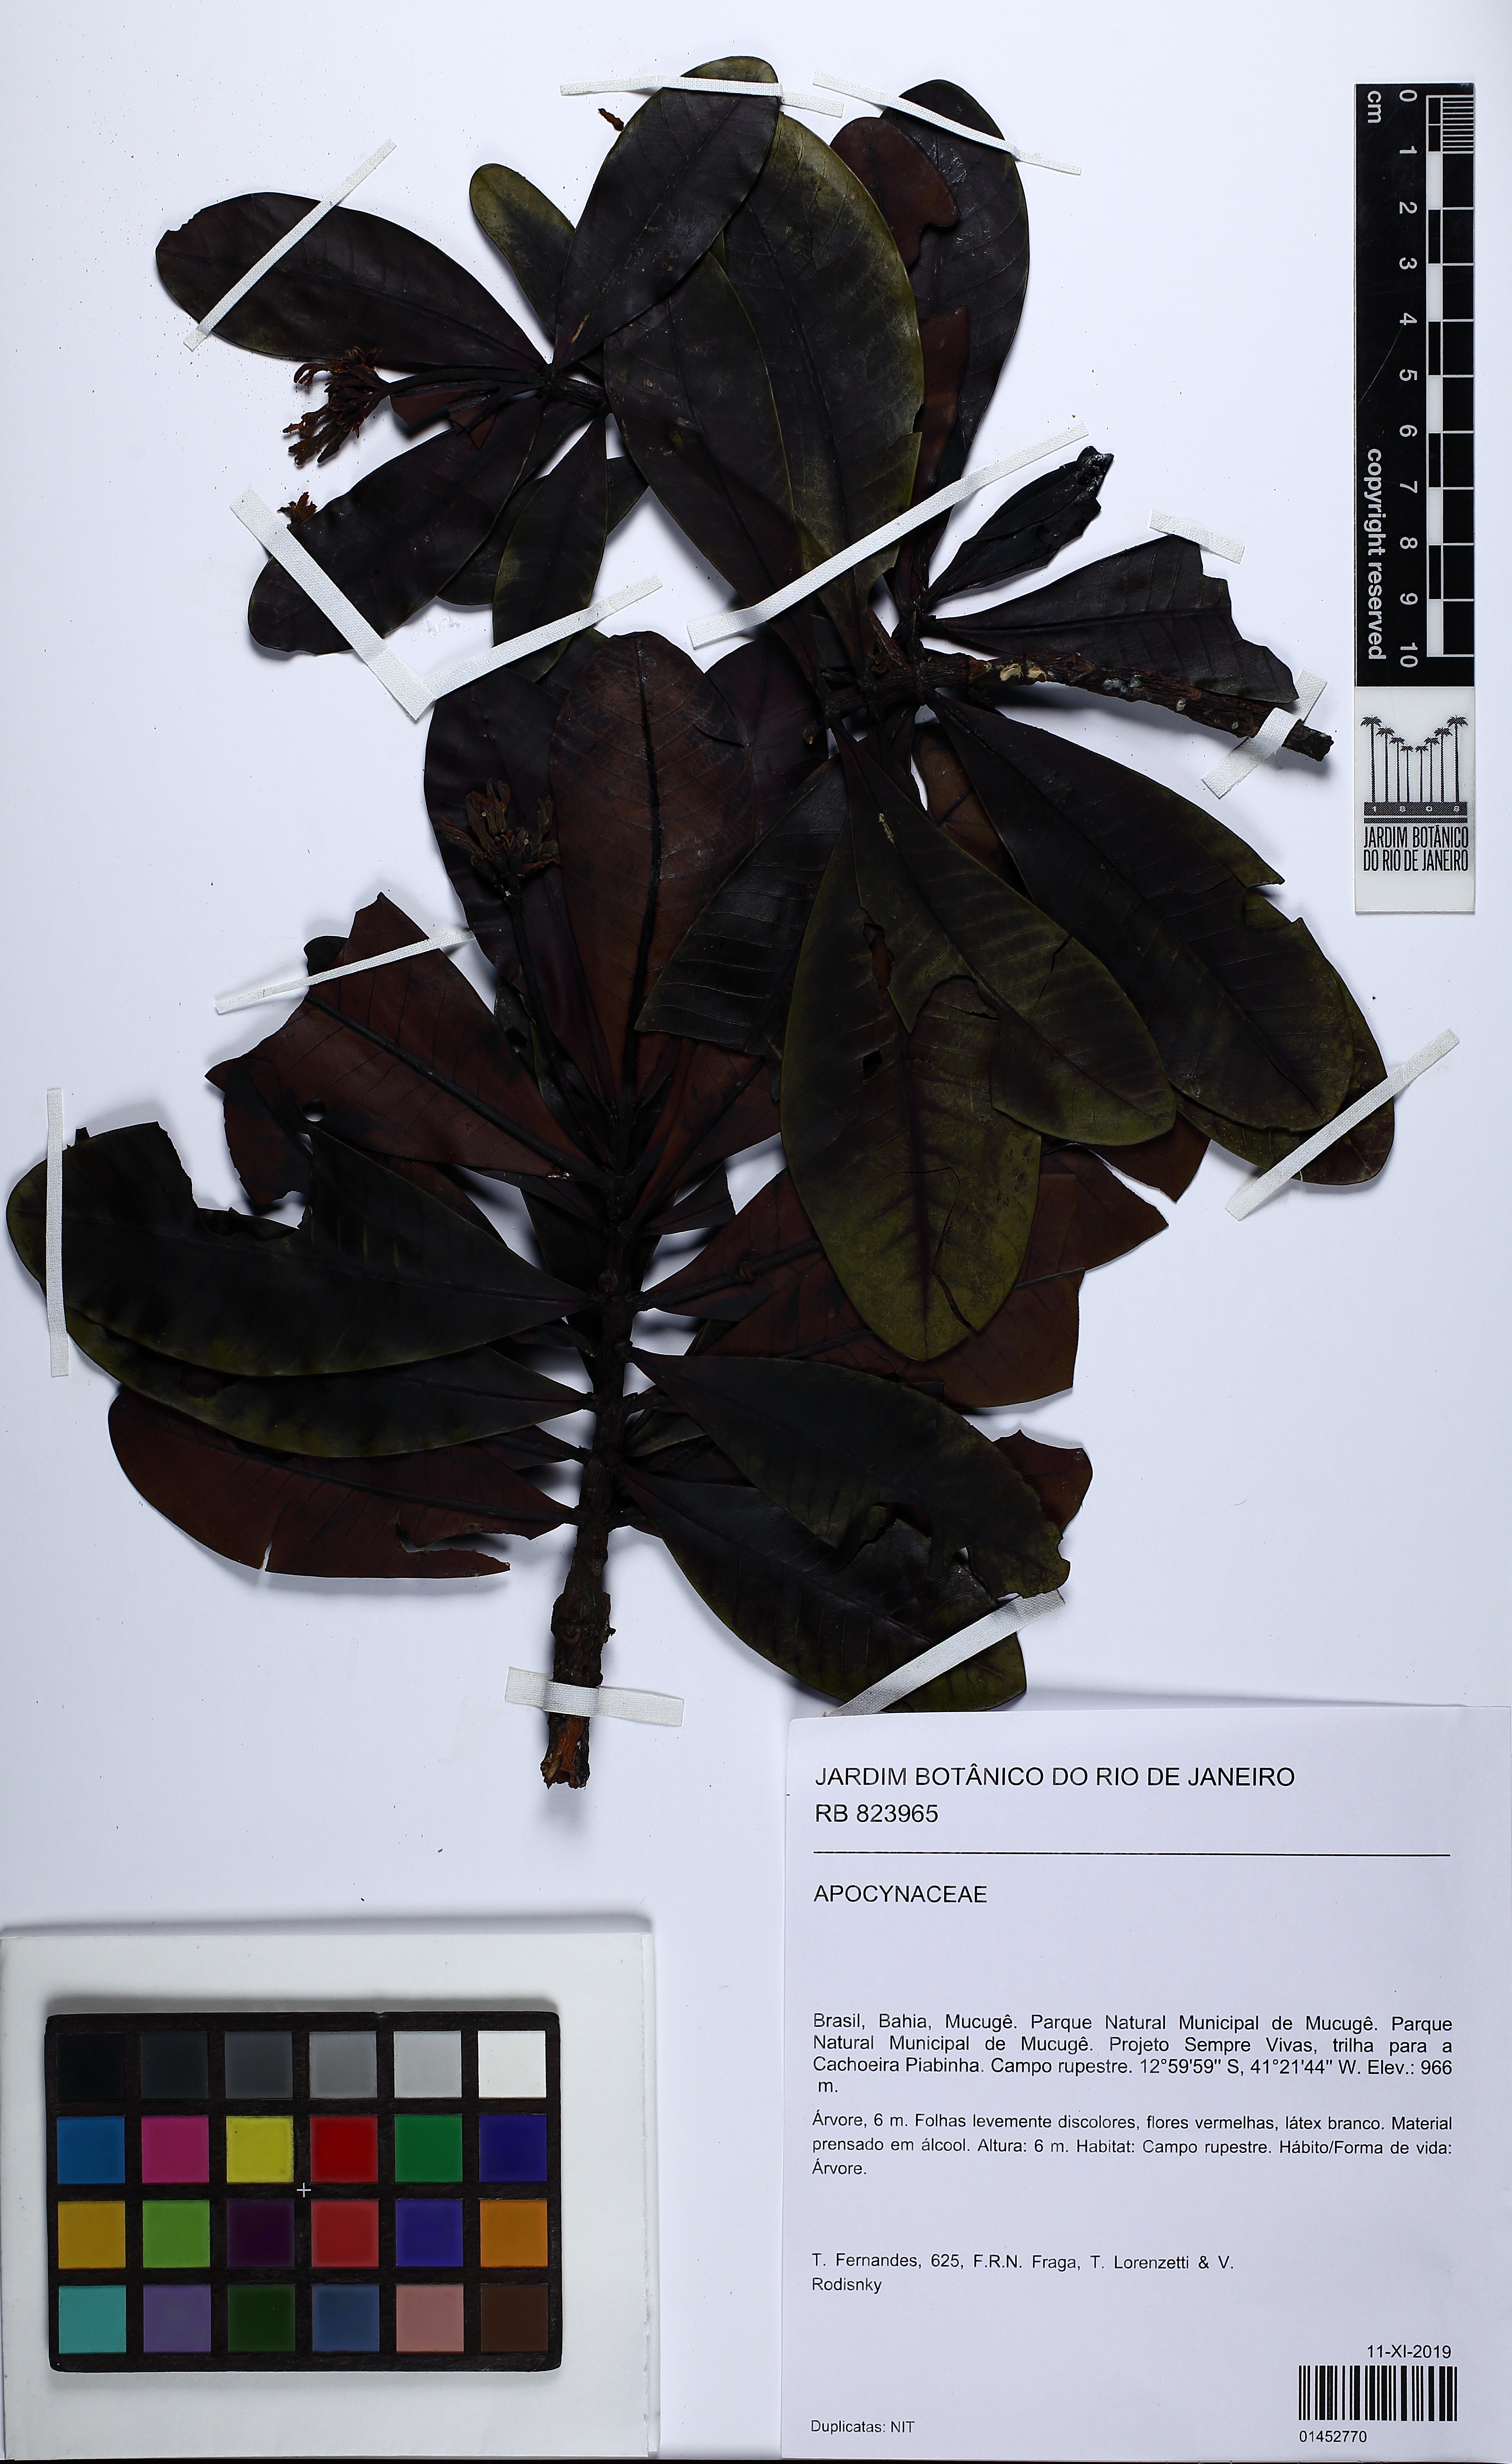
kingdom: Plantae
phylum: Tracheophyta
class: Magnoliopsida
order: Gentianales
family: Apocynaceae
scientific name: Apocynaceae
